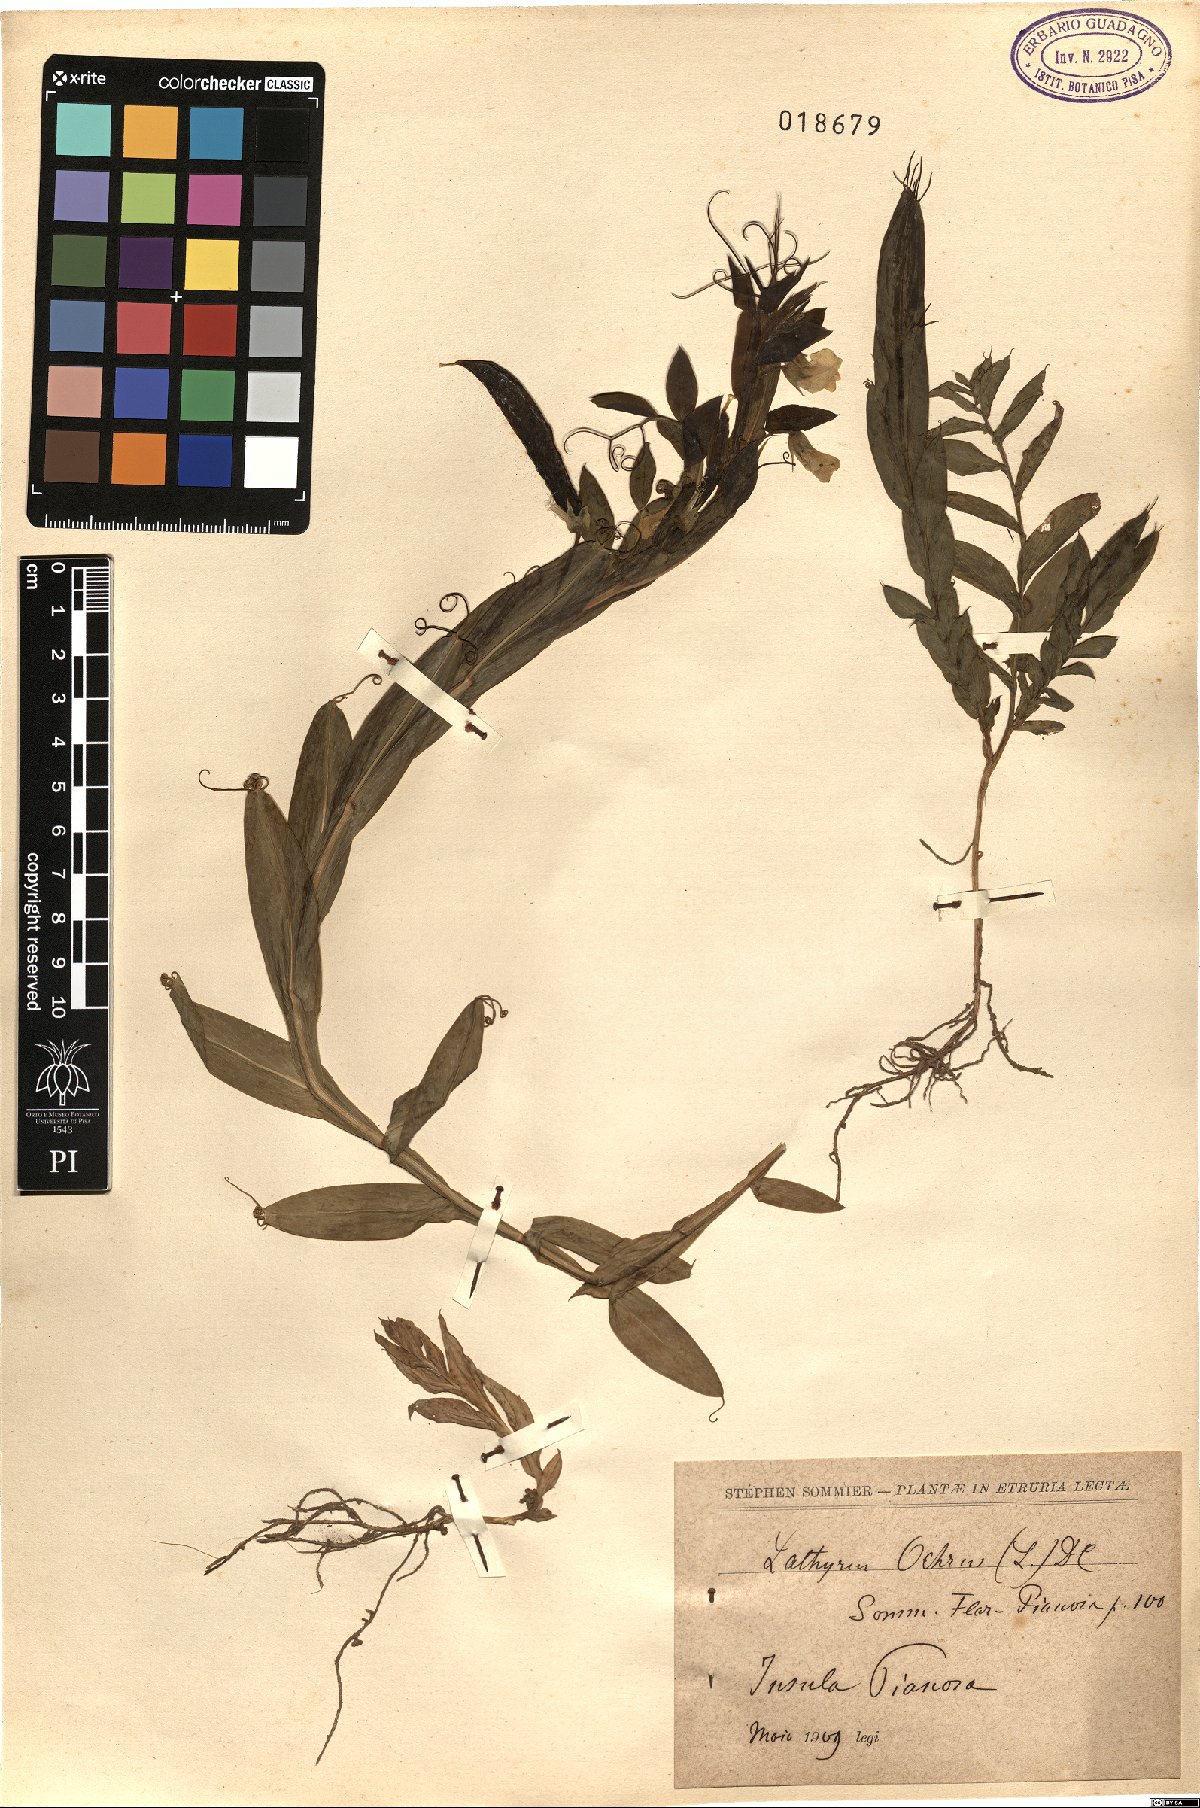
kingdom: Plantae
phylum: Tracheophyta
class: Magnoliopsida
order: Fabales
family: Fabaceae
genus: Lathyrus
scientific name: Lathyrus ochrus
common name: Winged vetchling
